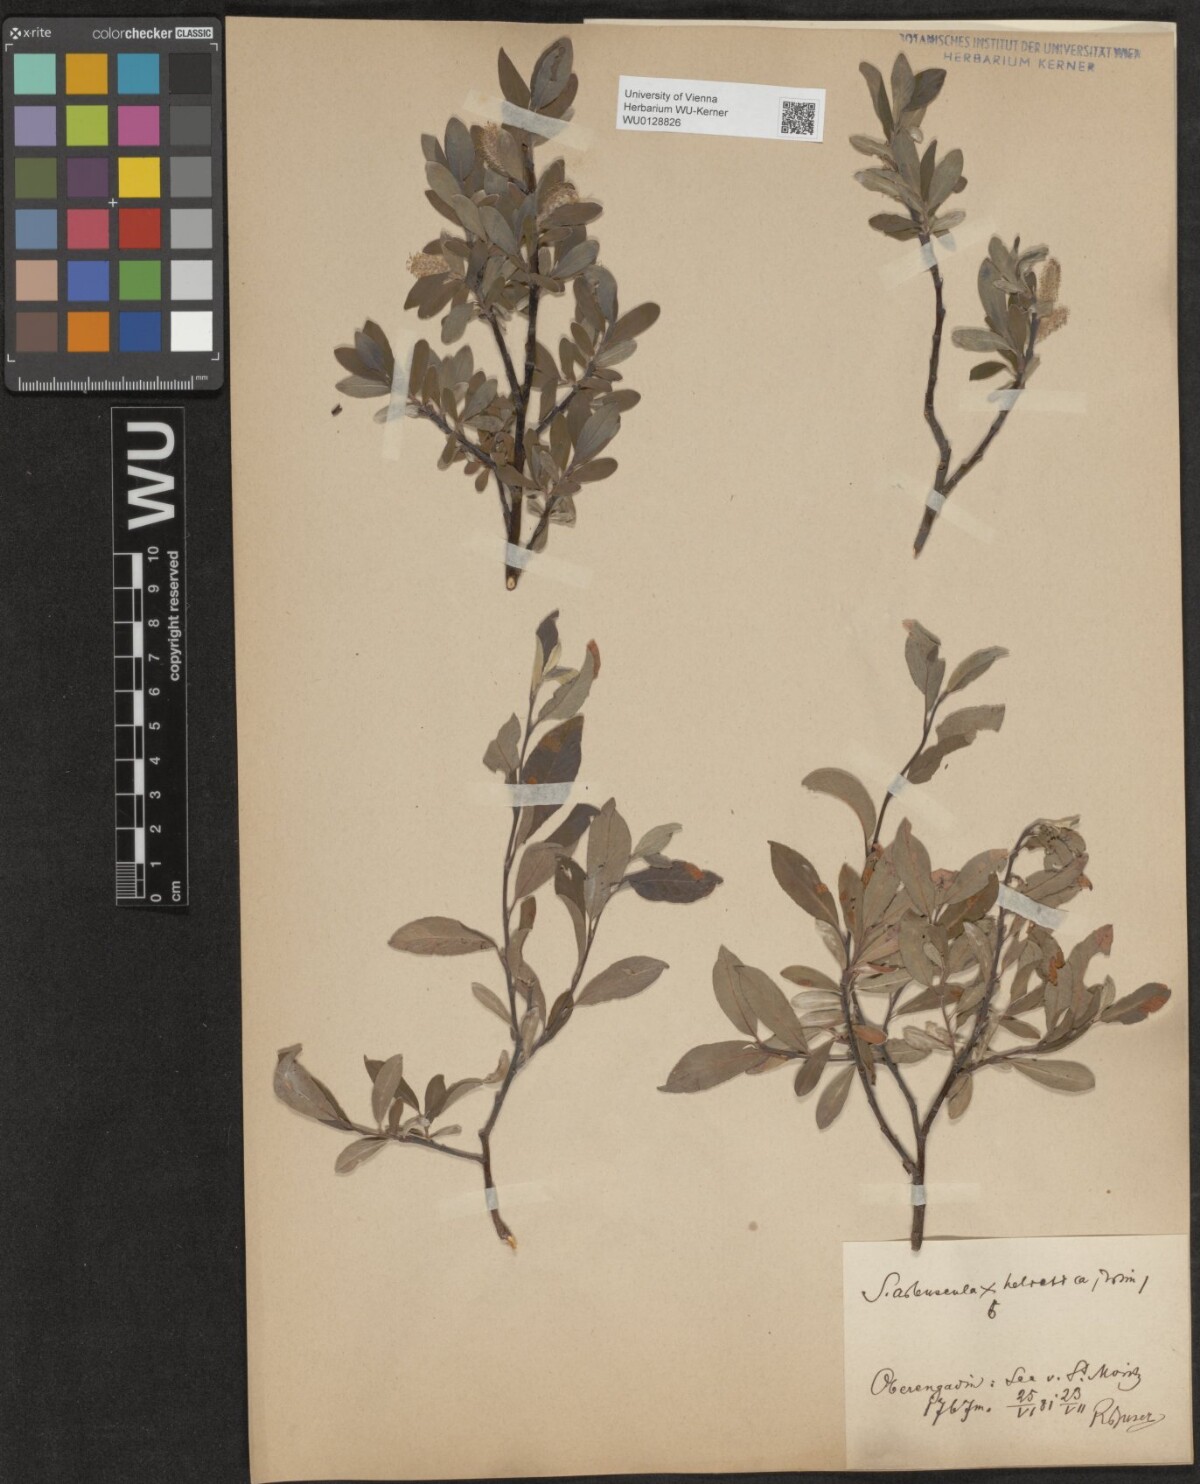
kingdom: Plantae
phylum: Tracheophyta
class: Magnoliopsida
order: Malpighiales
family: Salicaceae
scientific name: Salicaceae
